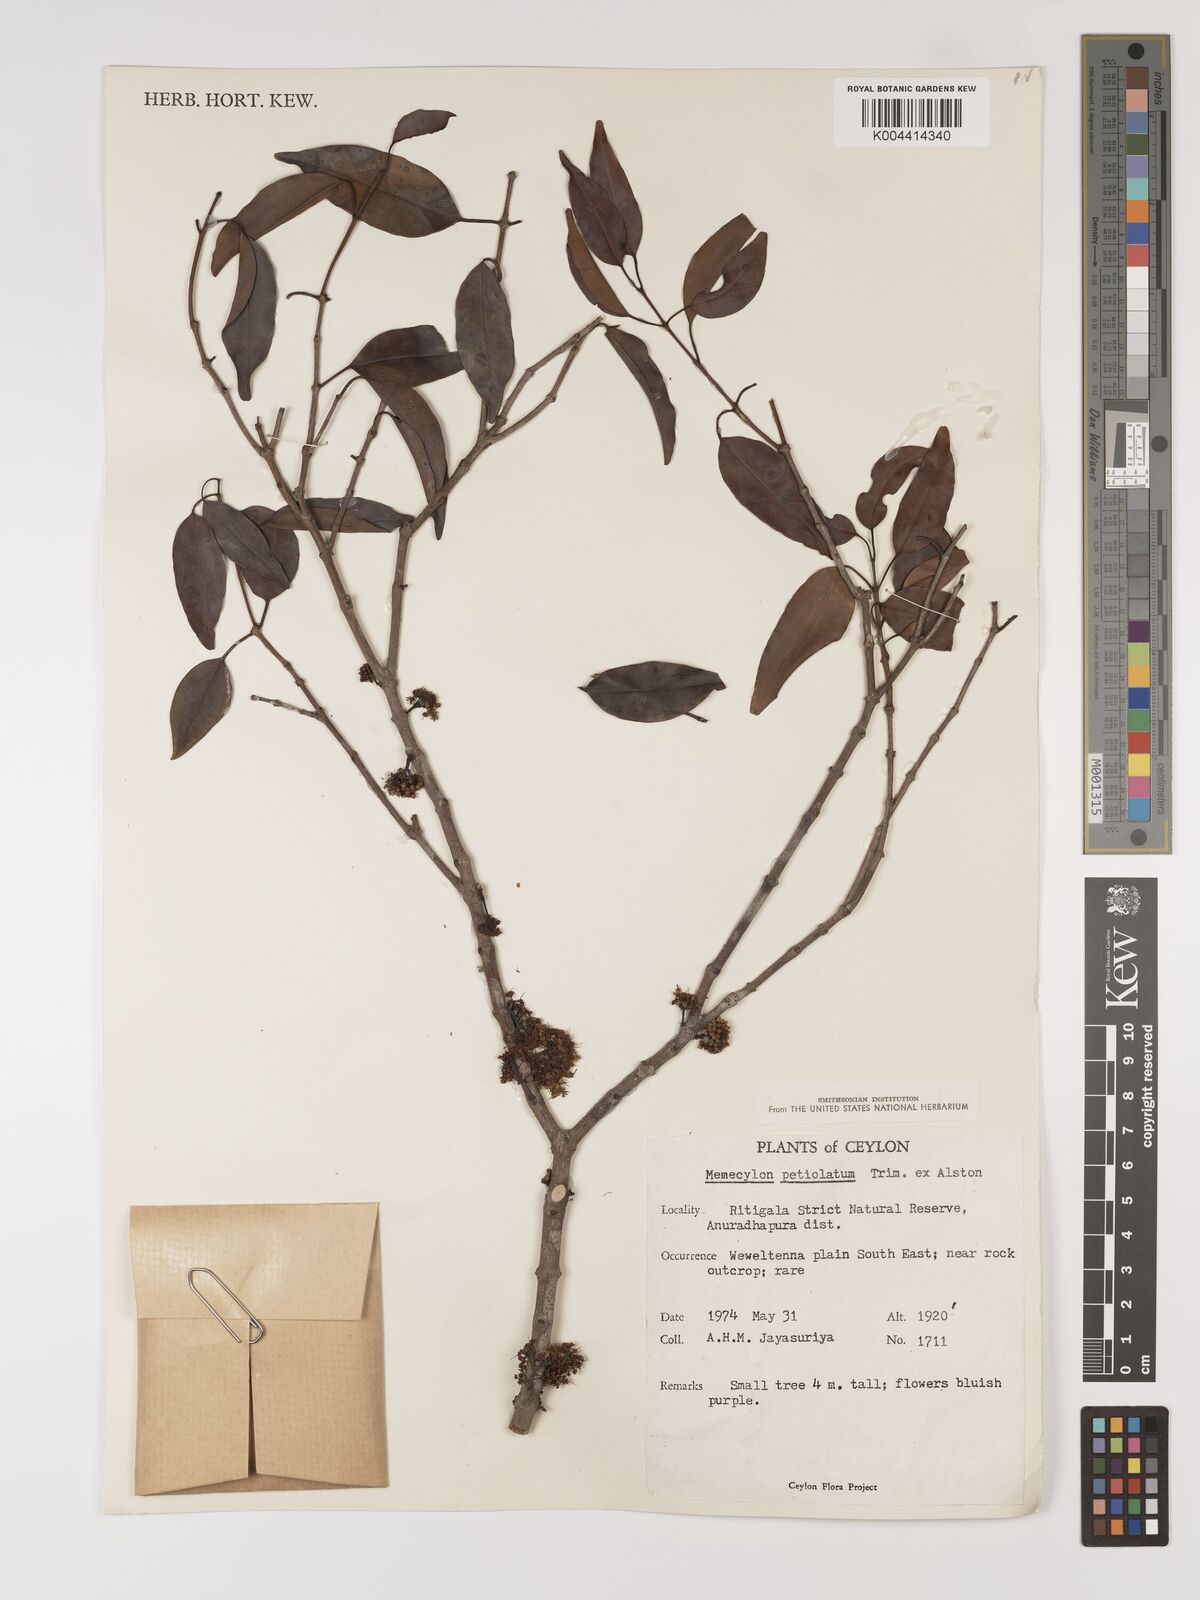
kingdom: Plantae
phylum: Tracheophyta
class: Magnoliopsida
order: Myrtales
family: Melastomataceae
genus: Memecylon
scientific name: Memecylon edule
